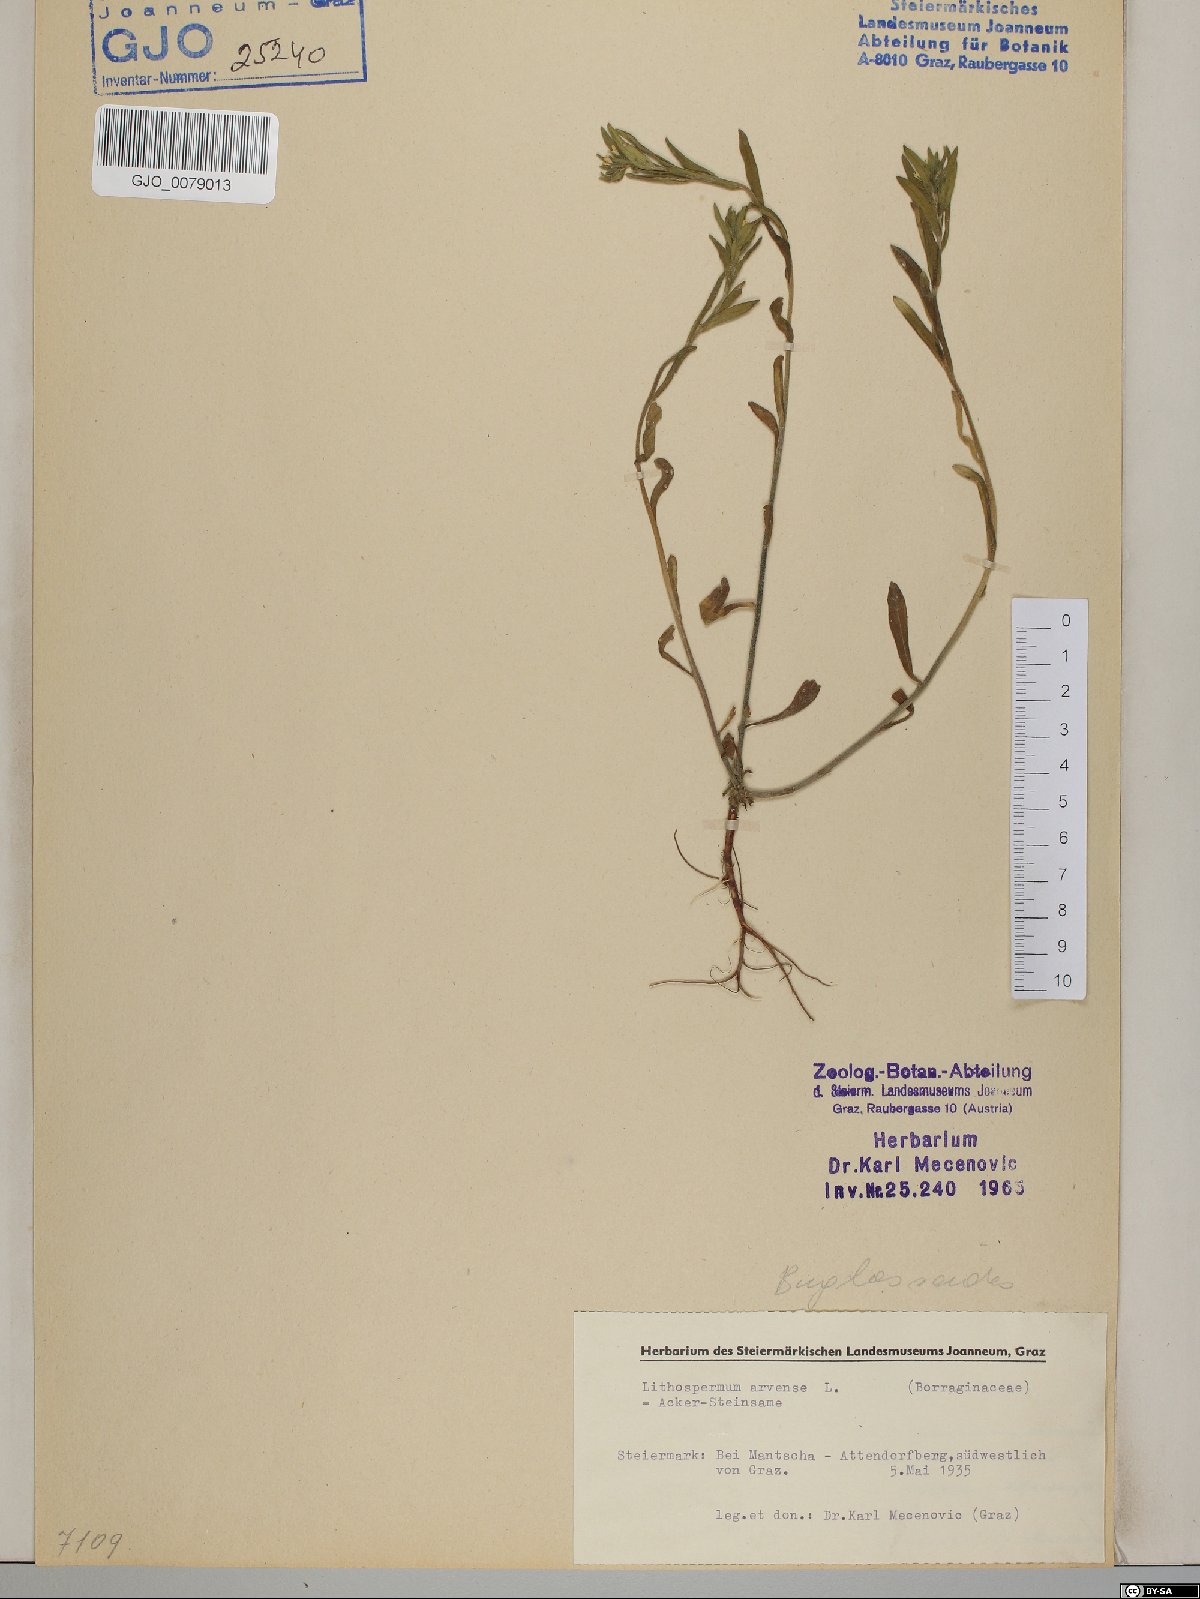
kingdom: Plantae
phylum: Tracheophyta
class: Magnoliopsida
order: Boraginales
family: Boraginaceae
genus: Buglossoides
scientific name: Buglossoides arvensis
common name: Corn gromwell
